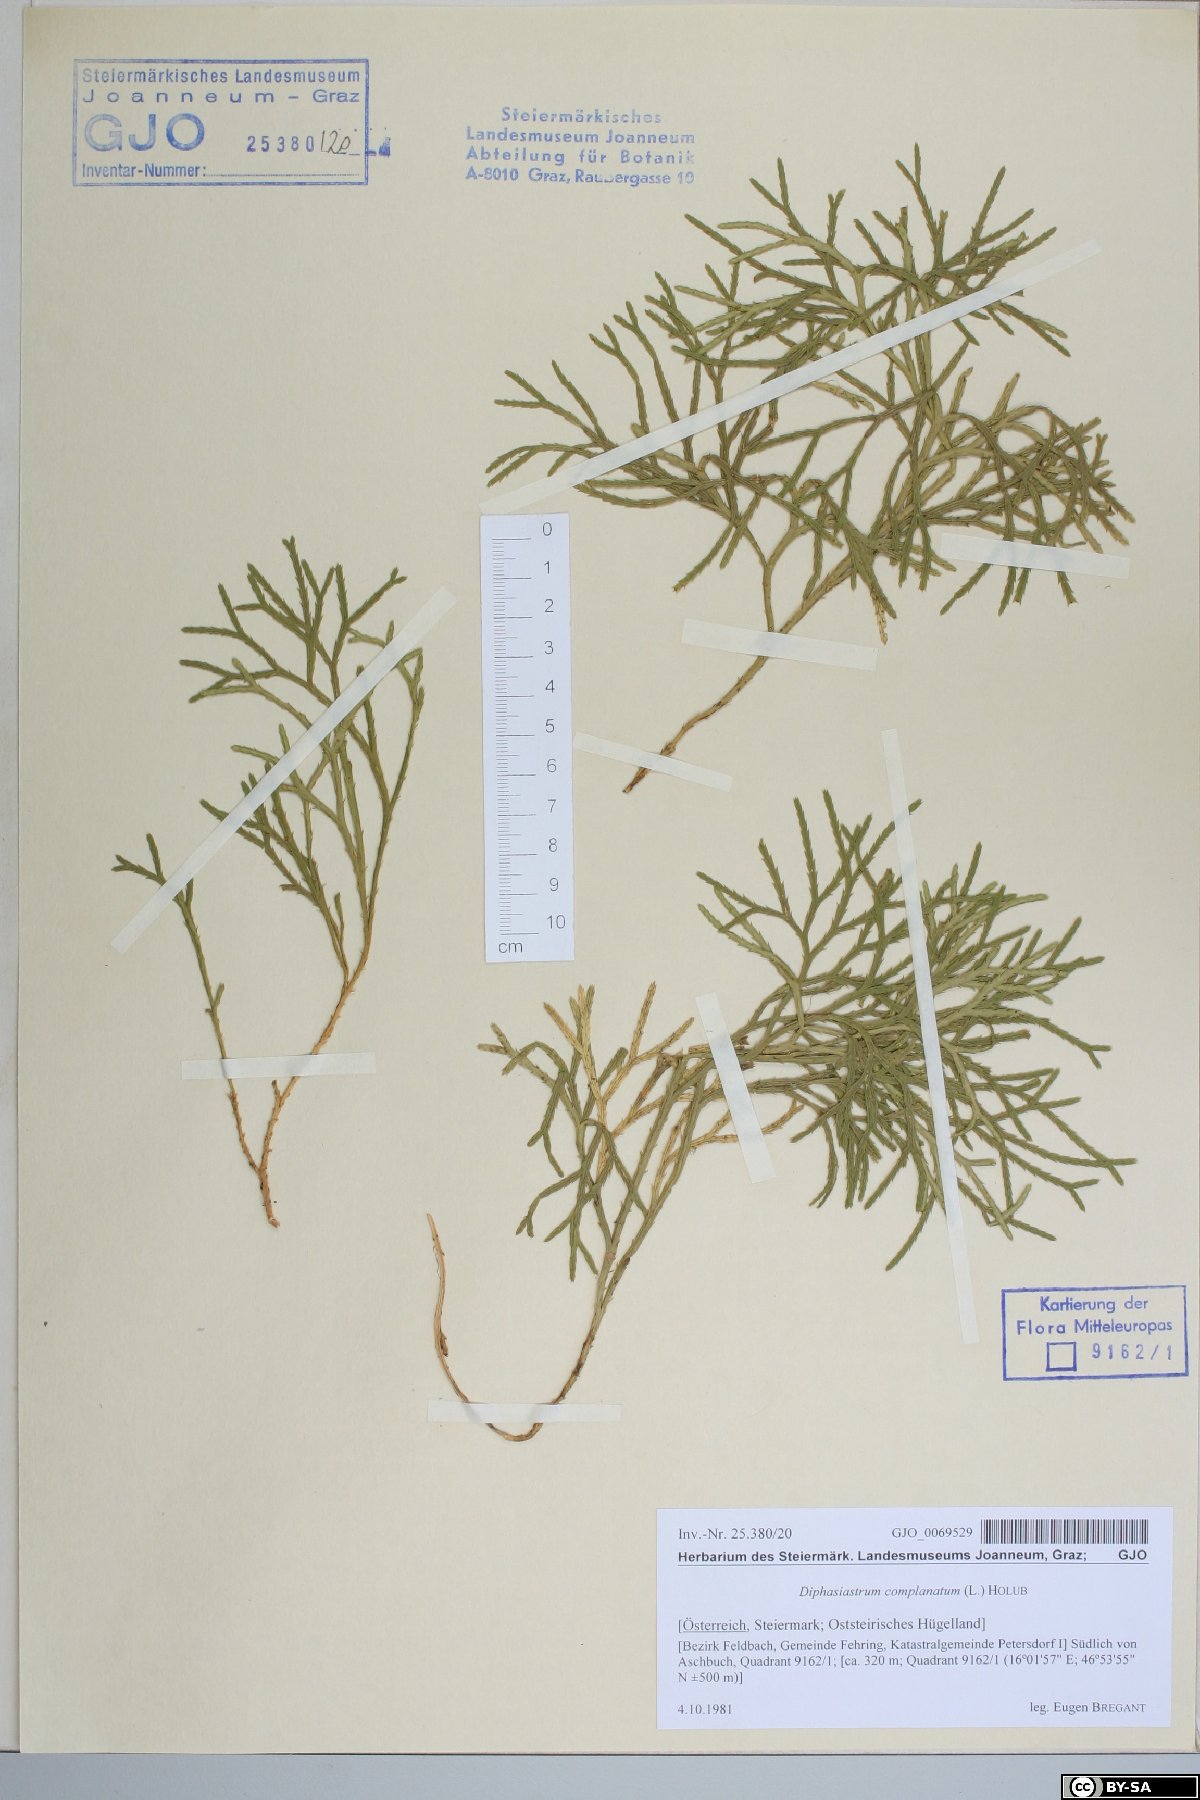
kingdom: Plantae
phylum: Tracheophyta
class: Lycopodiopsida
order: Lycopodiales
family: Lycopodiaceae
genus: Diphasiastrum
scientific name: Diphasiastrum complanatum
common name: Northern running-pine
